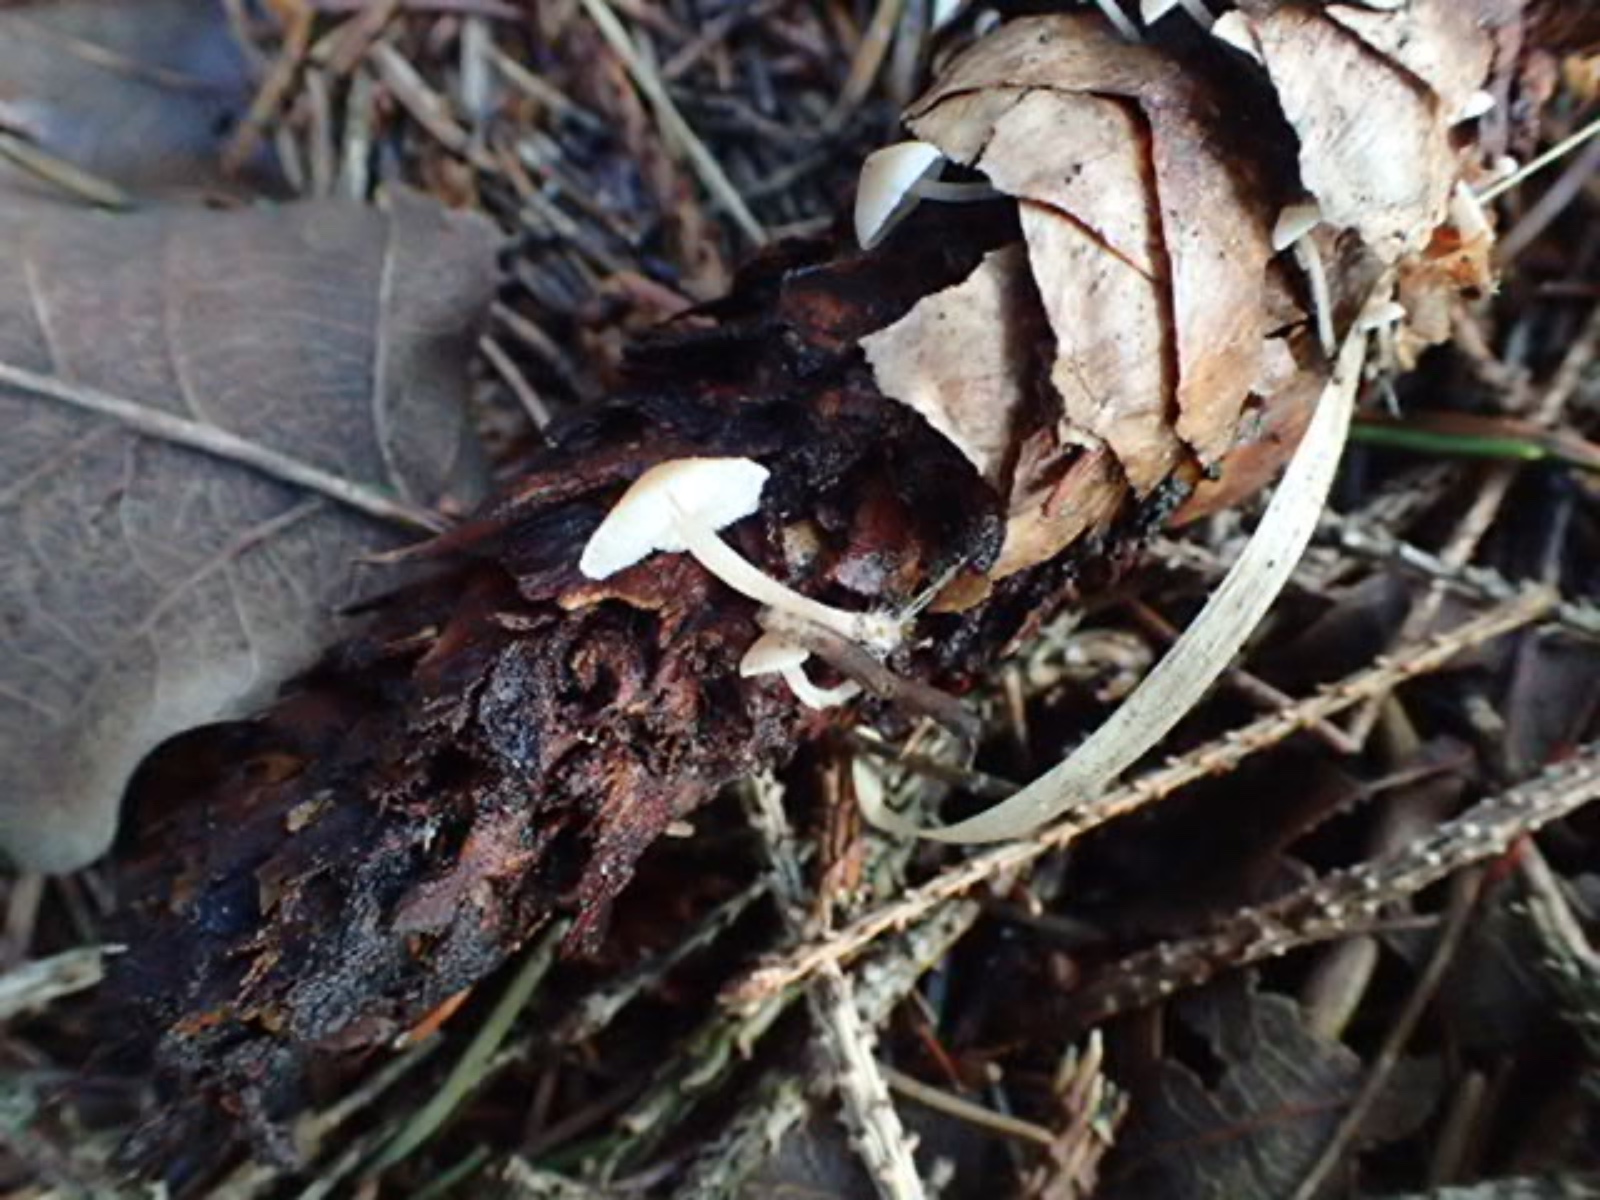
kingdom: Fungi
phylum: Basidiomycota
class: Agaricomycetes
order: Agaricales
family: Marasmiaceae
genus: Baeospora
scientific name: Baeospora myosura
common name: koglebruskhat
